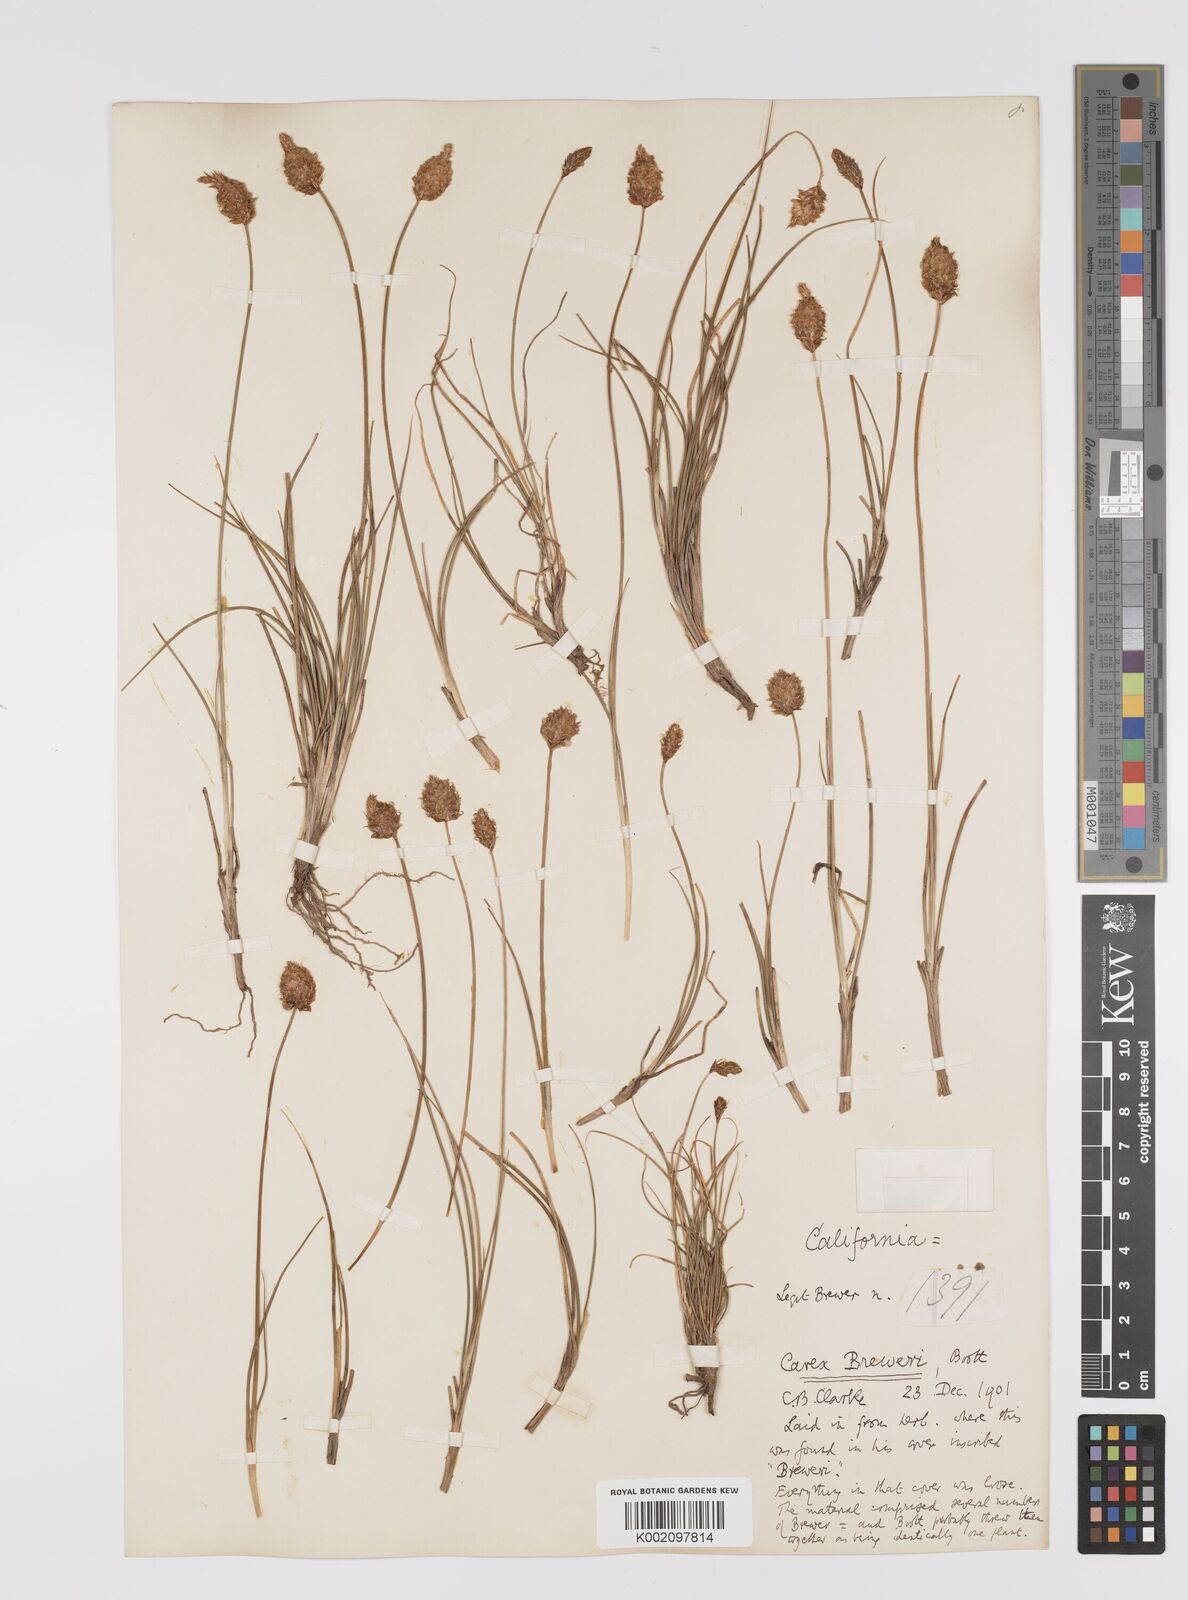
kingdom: Plantae
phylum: Tracheophyta
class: Liliopsida
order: Poales
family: Cyperaceae
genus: Carex
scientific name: Carex breweri
